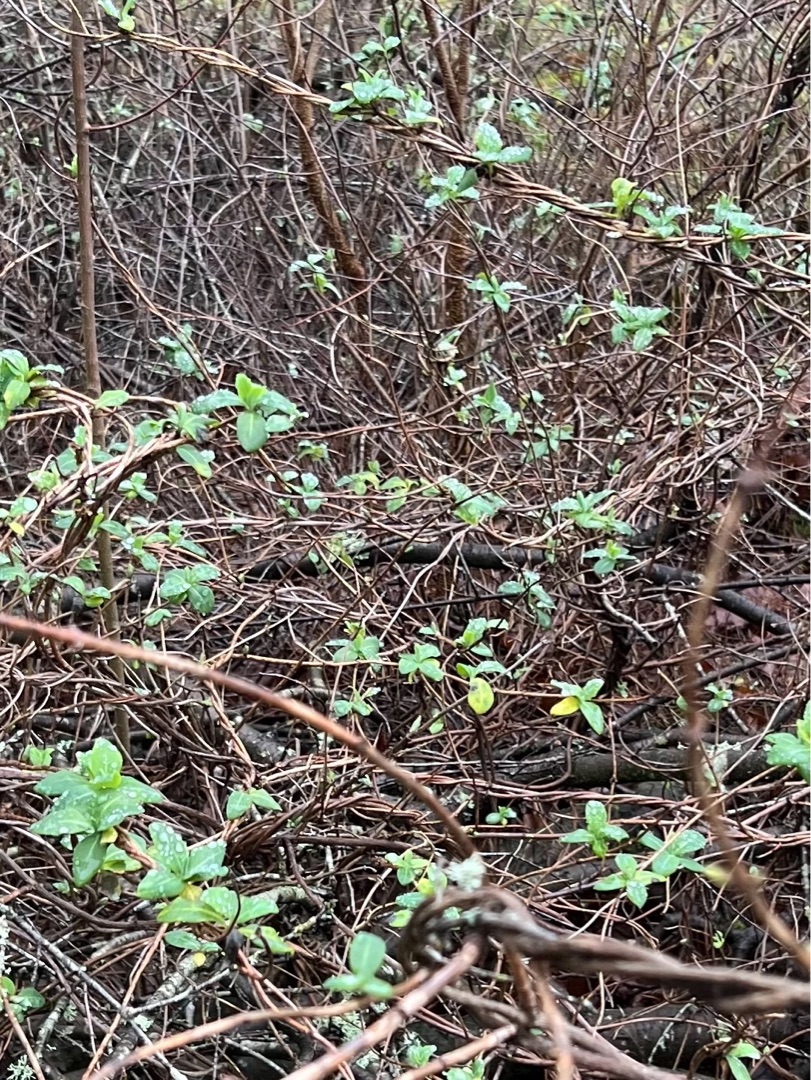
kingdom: Plantae
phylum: Tracheophyta
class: Magnoliopsida
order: Dipsacales
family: Caprifoliaceae
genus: Lonicera
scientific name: Lonicera periclymenum
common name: Almindelig gedeblad
